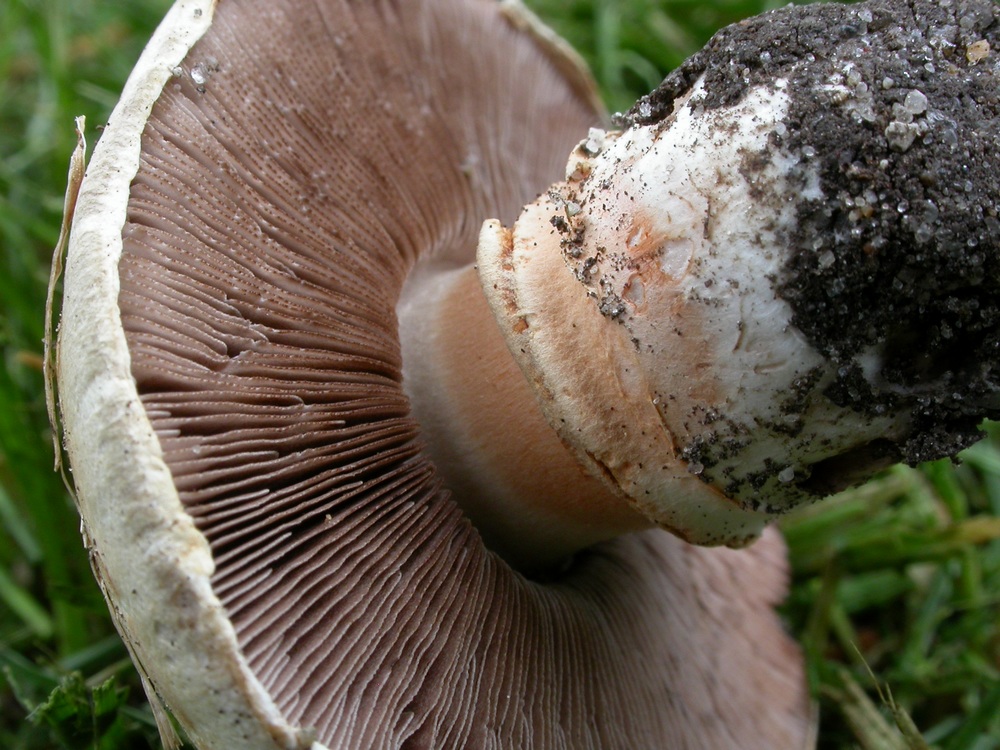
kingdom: Fungi
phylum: Basidiomycota
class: Agaricomycetes
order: Agaricales
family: Agaricaceae
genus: Agaricus
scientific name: Agaricus bitorquis
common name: vej-champignon
